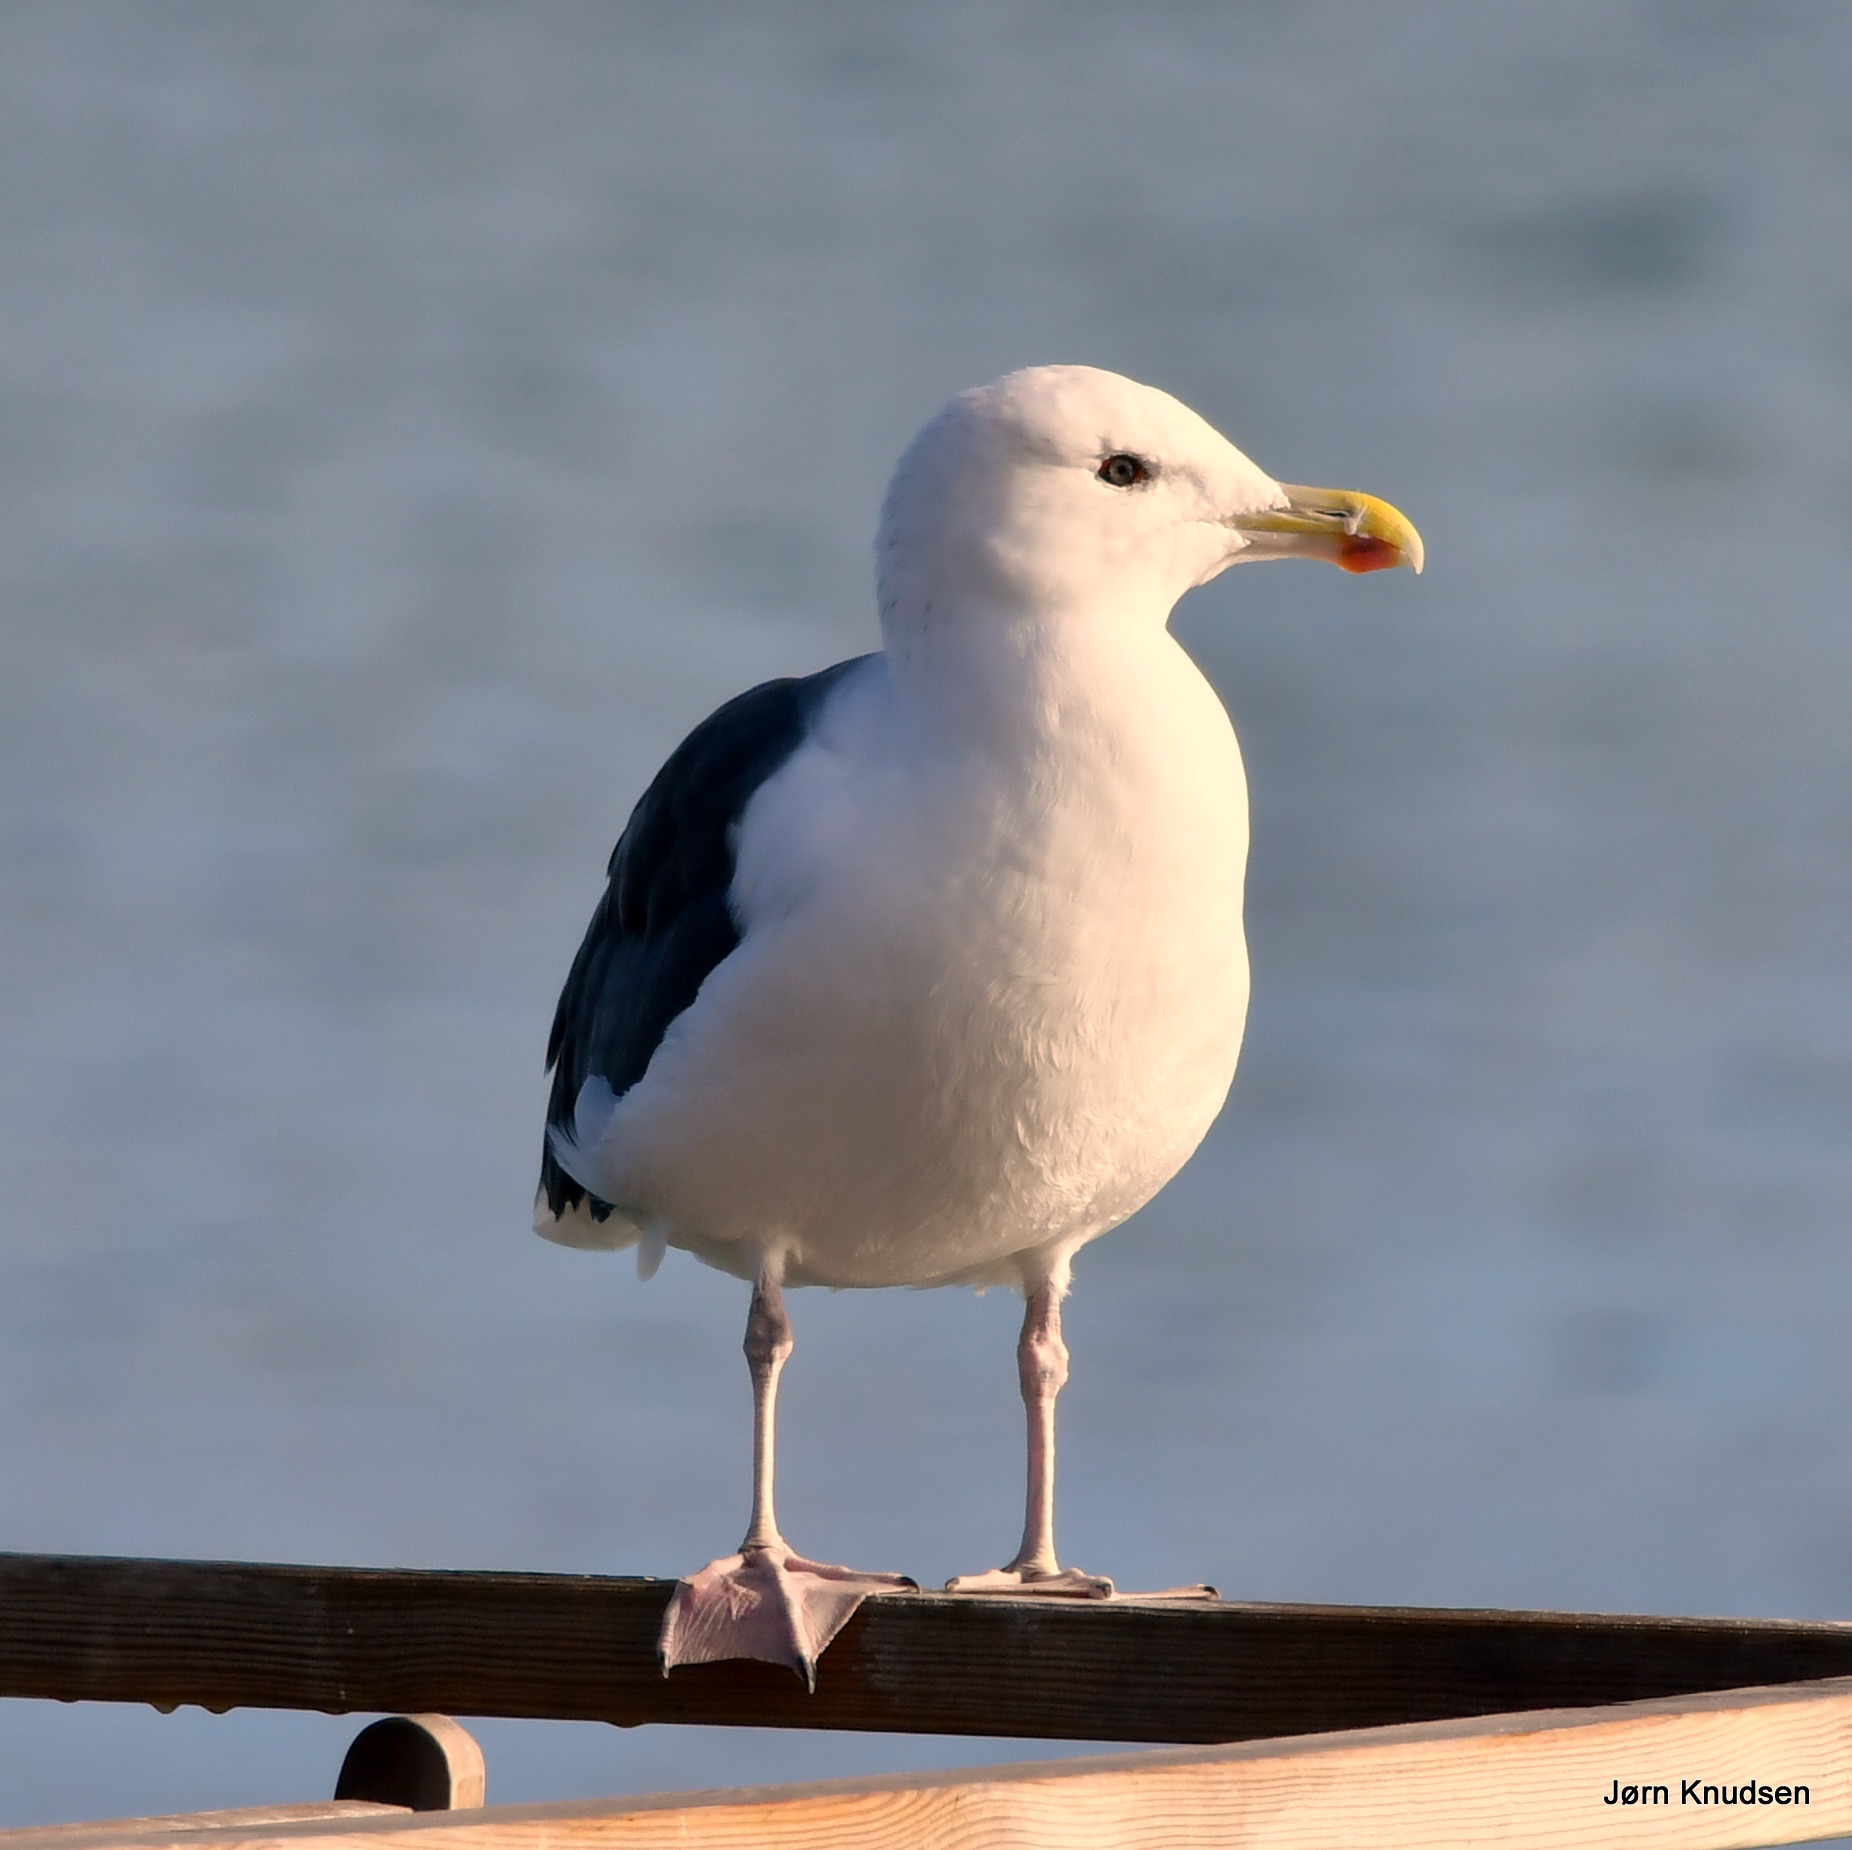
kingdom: Animalia
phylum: Chordata
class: Aves
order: Charadriiformes
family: Laridae
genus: Larus
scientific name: Larus marinus
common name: Svartbag
